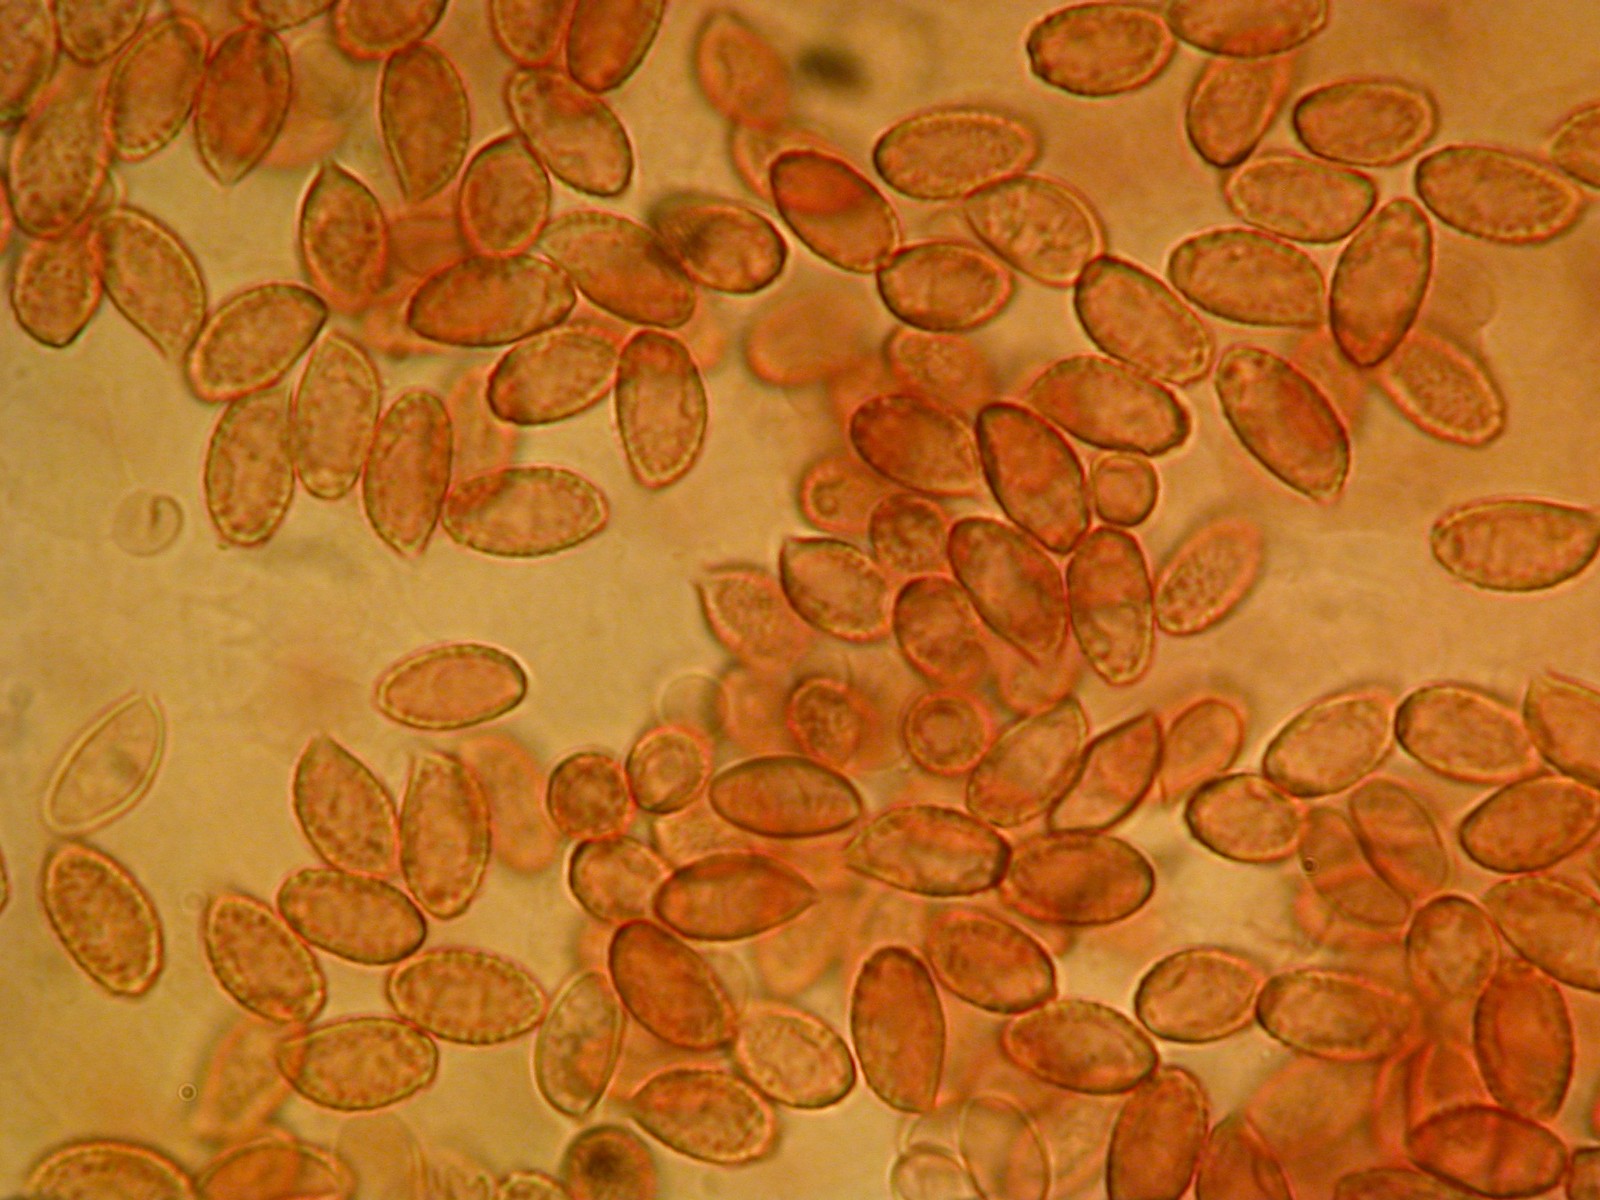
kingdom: Fungi
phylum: Basidiomycota
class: Agaricomycetes
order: Agaricales
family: Cortinariaceae
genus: Cortinarius
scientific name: Cortinarius glaphurus
